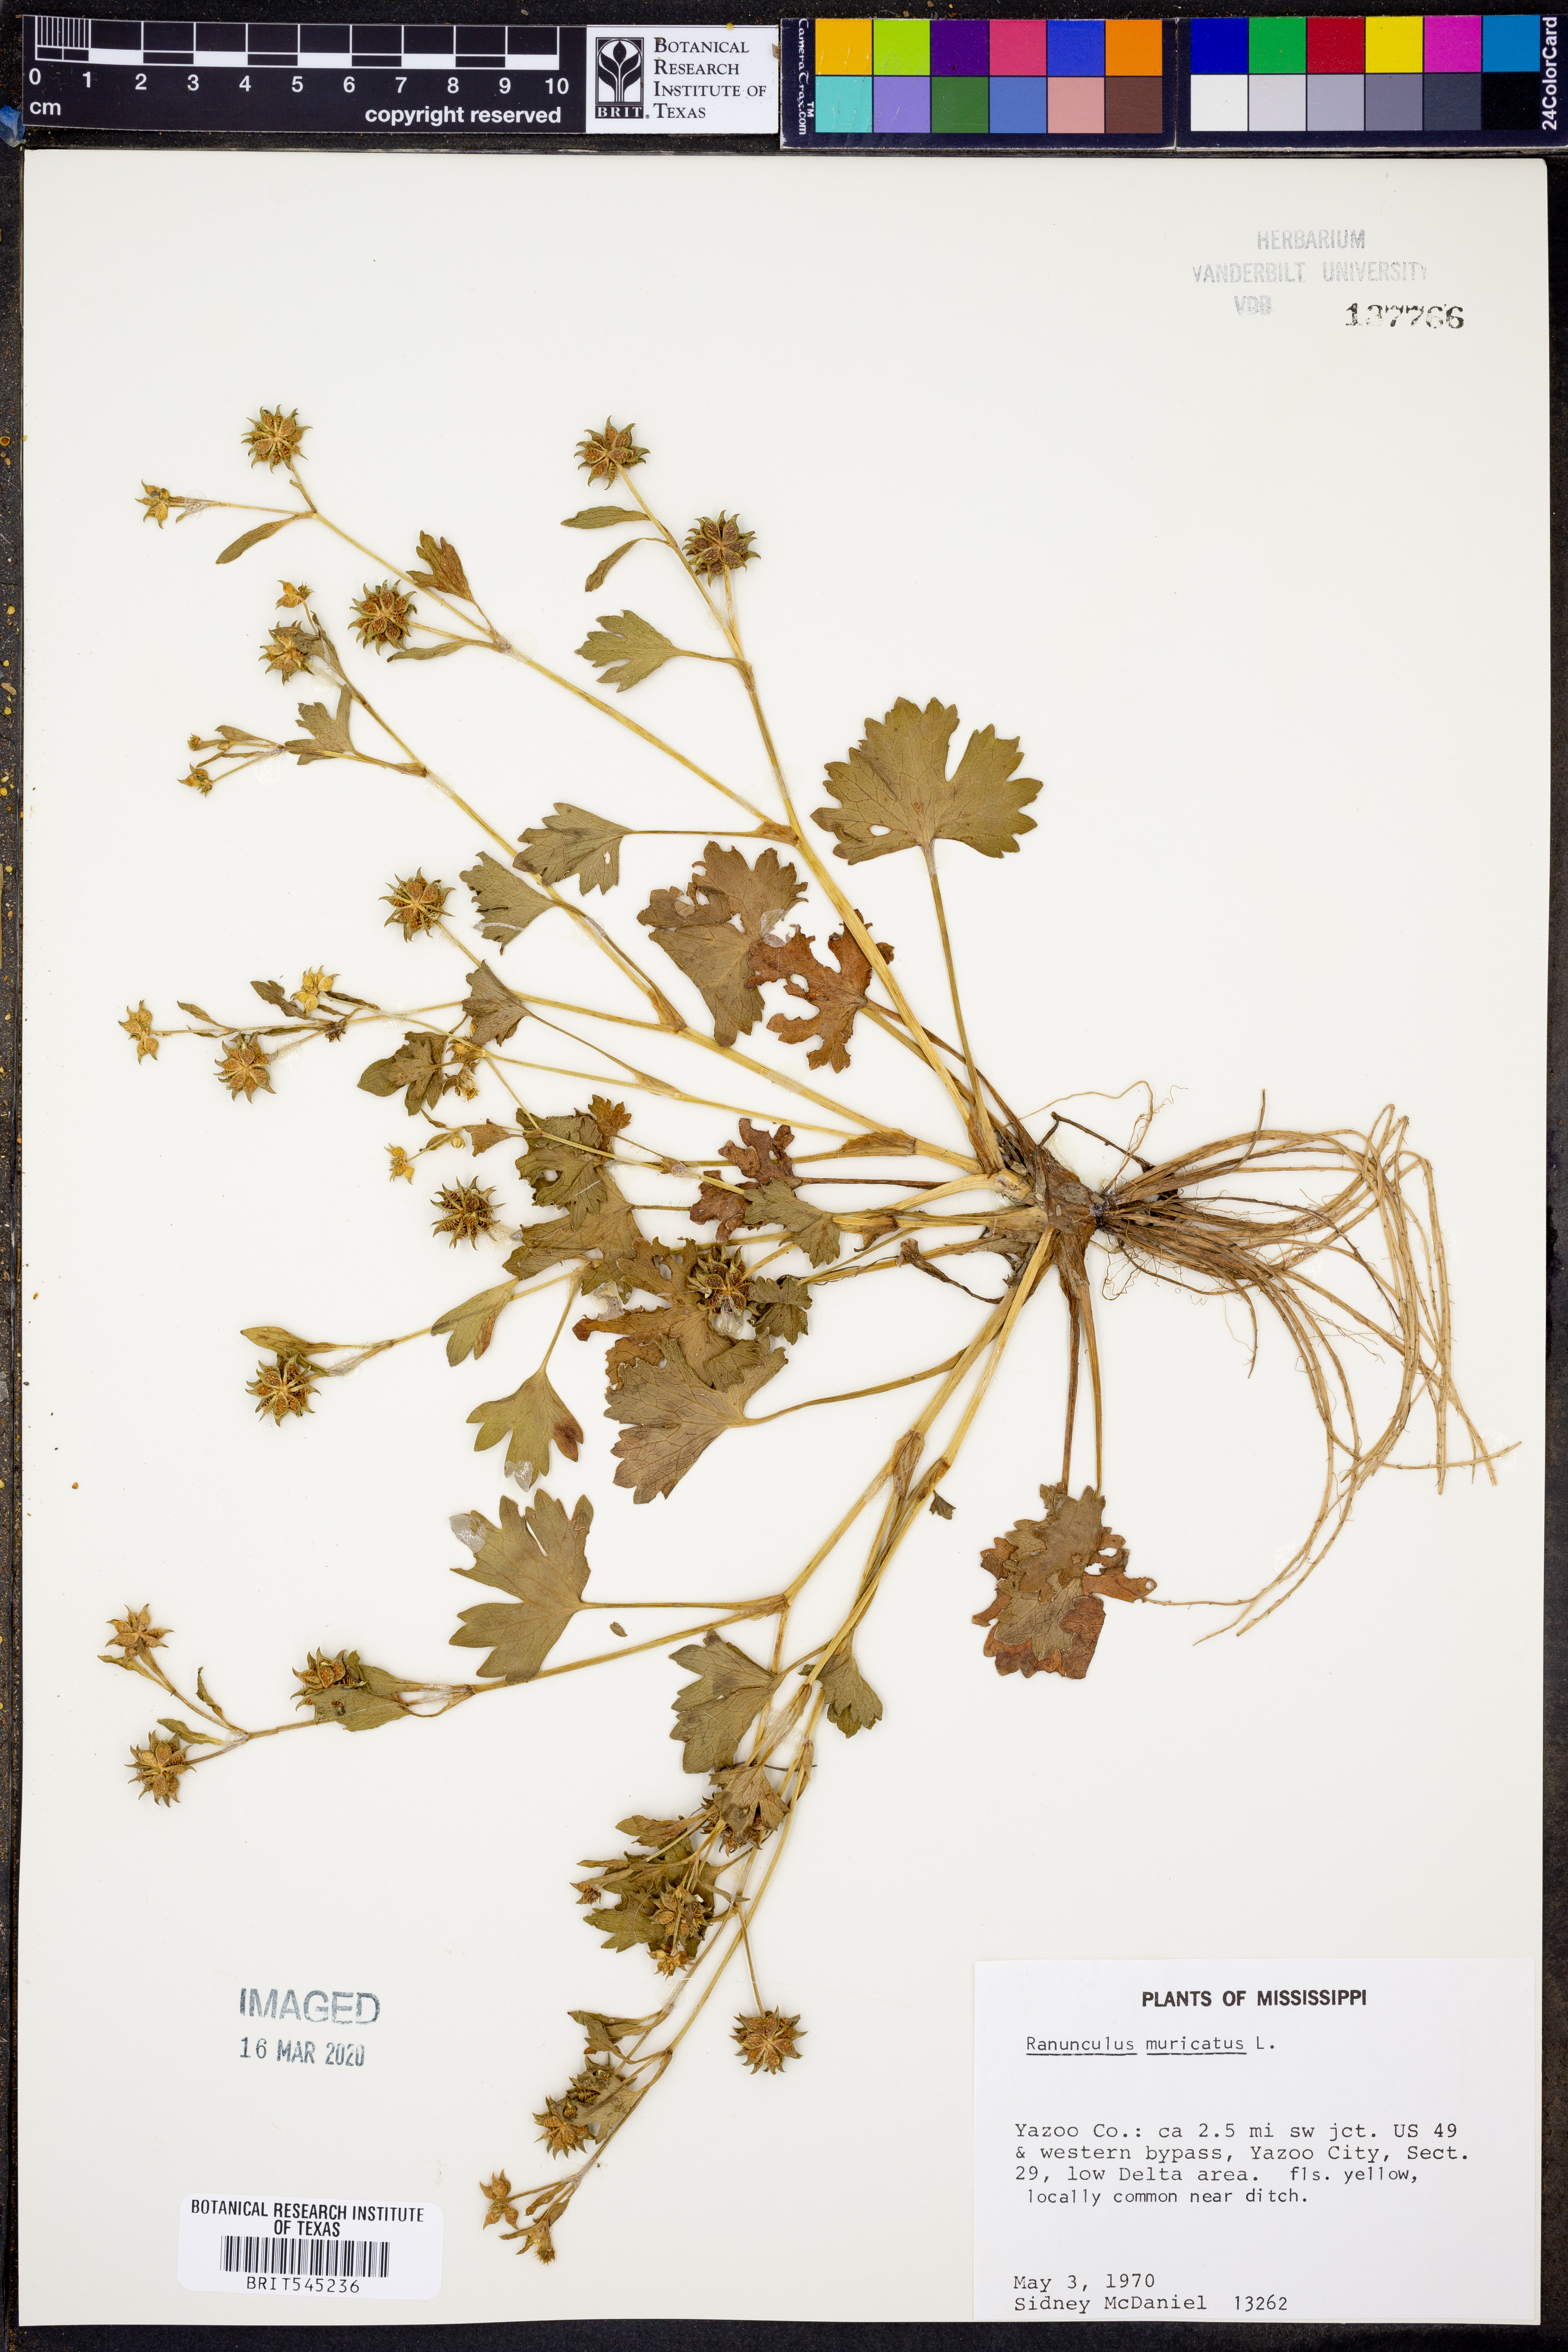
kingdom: Plantae
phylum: Tracheophyta
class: Magnoliopsida
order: Ranunculales
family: Ranunculaceae
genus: Ranunculus
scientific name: Ranunculus muricatus
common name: Rough-fruited buttercup
